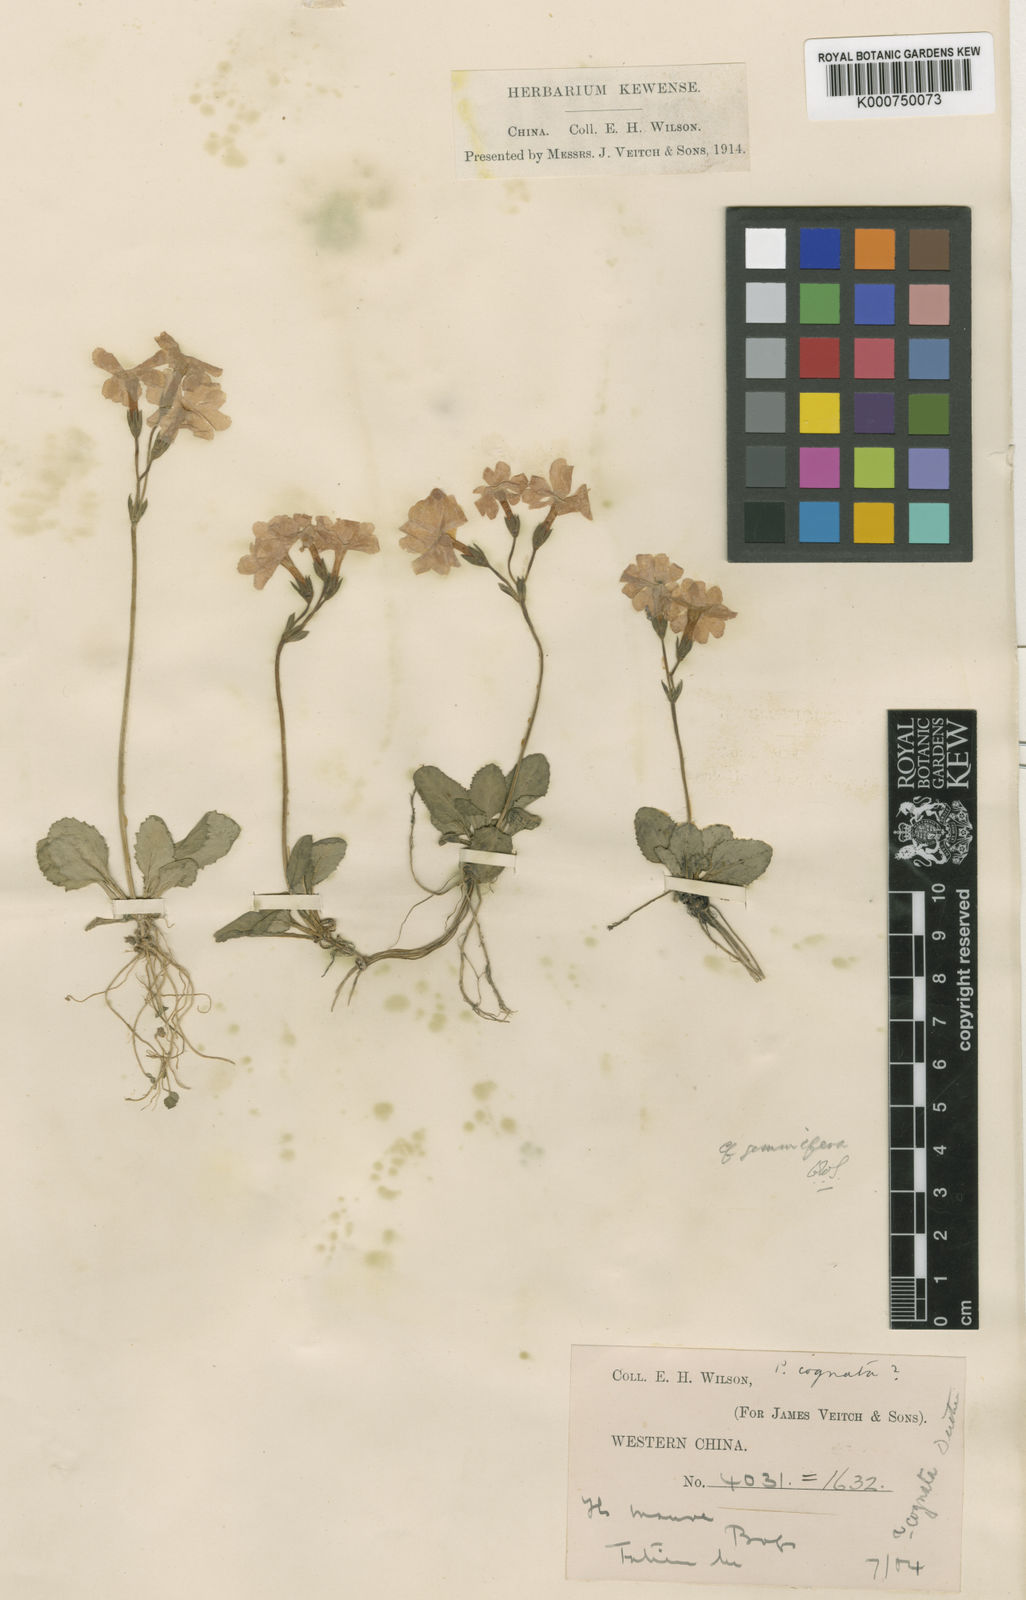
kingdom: Plantae
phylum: Tracheophyta
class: Magnoliopsida
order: Ericales
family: Primulaceae
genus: Primula
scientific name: Primula gemmifera
